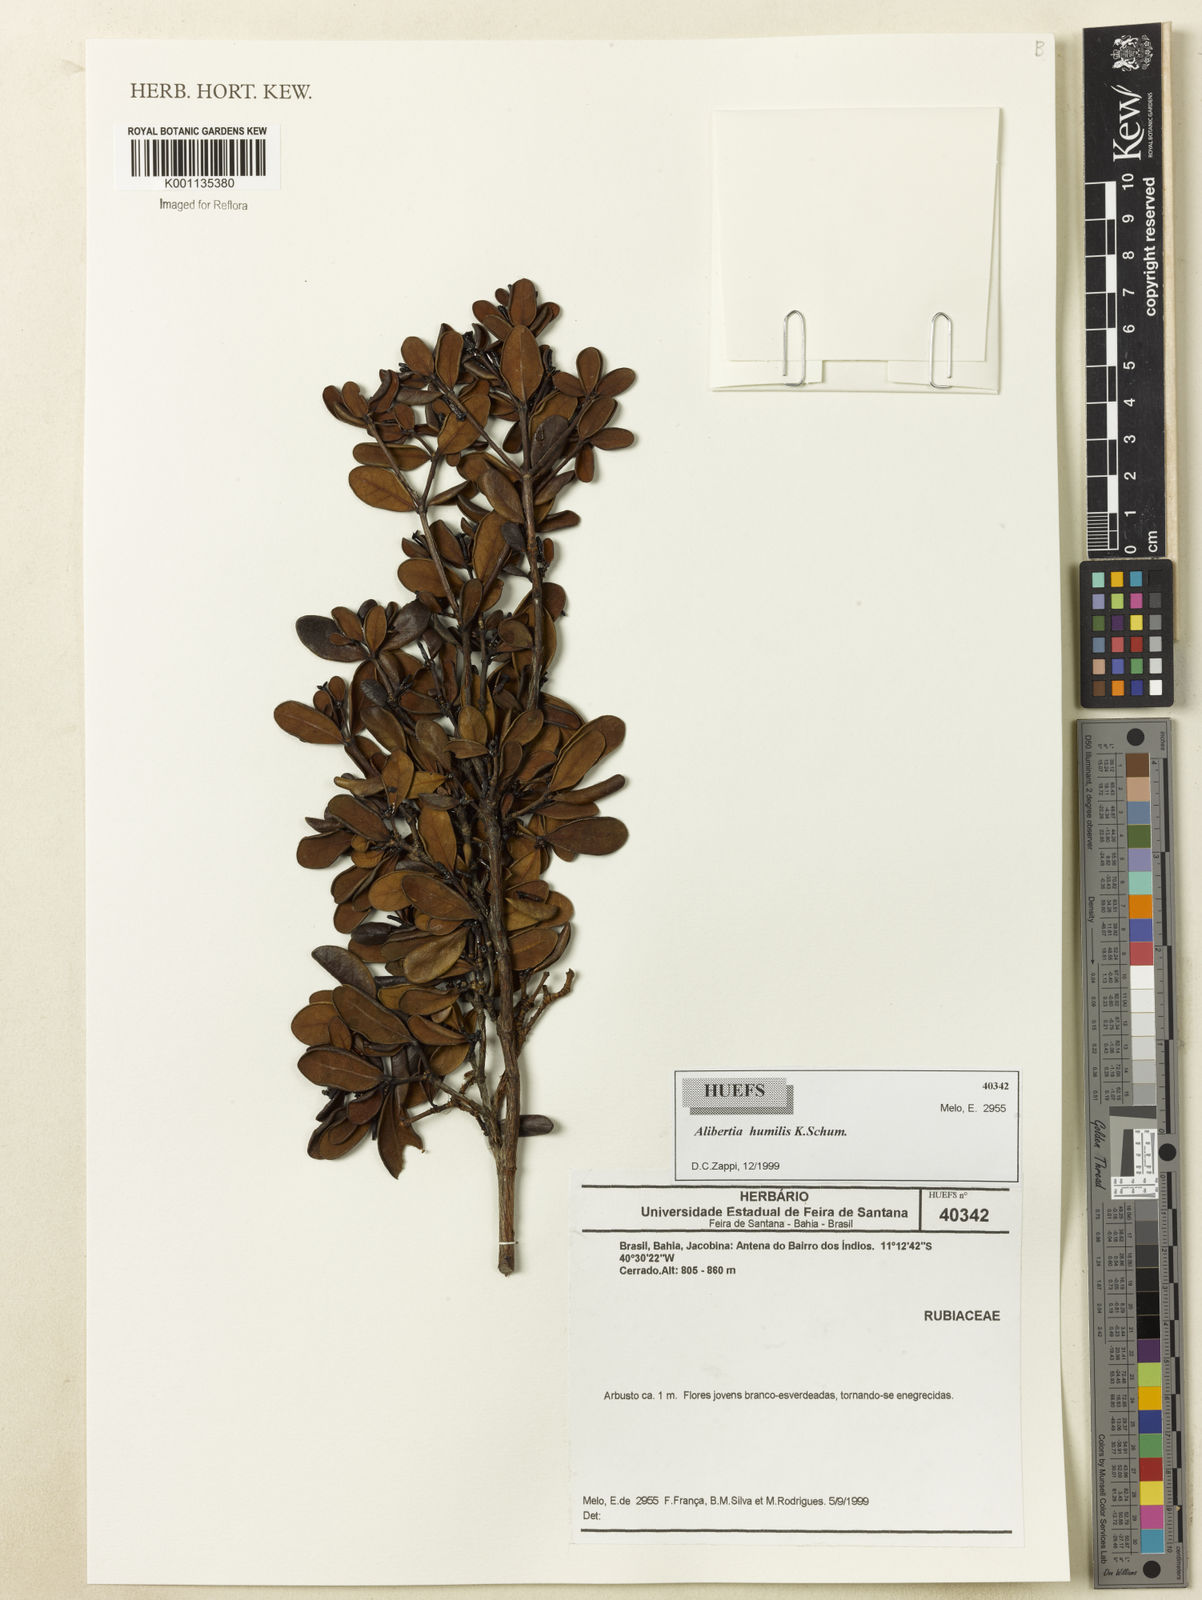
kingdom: Plantae
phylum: Tracheophyta
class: Magnoliopsida
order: Gentianales
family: Rubiaceae
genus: Cordiera
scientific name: Cordiera humilis
